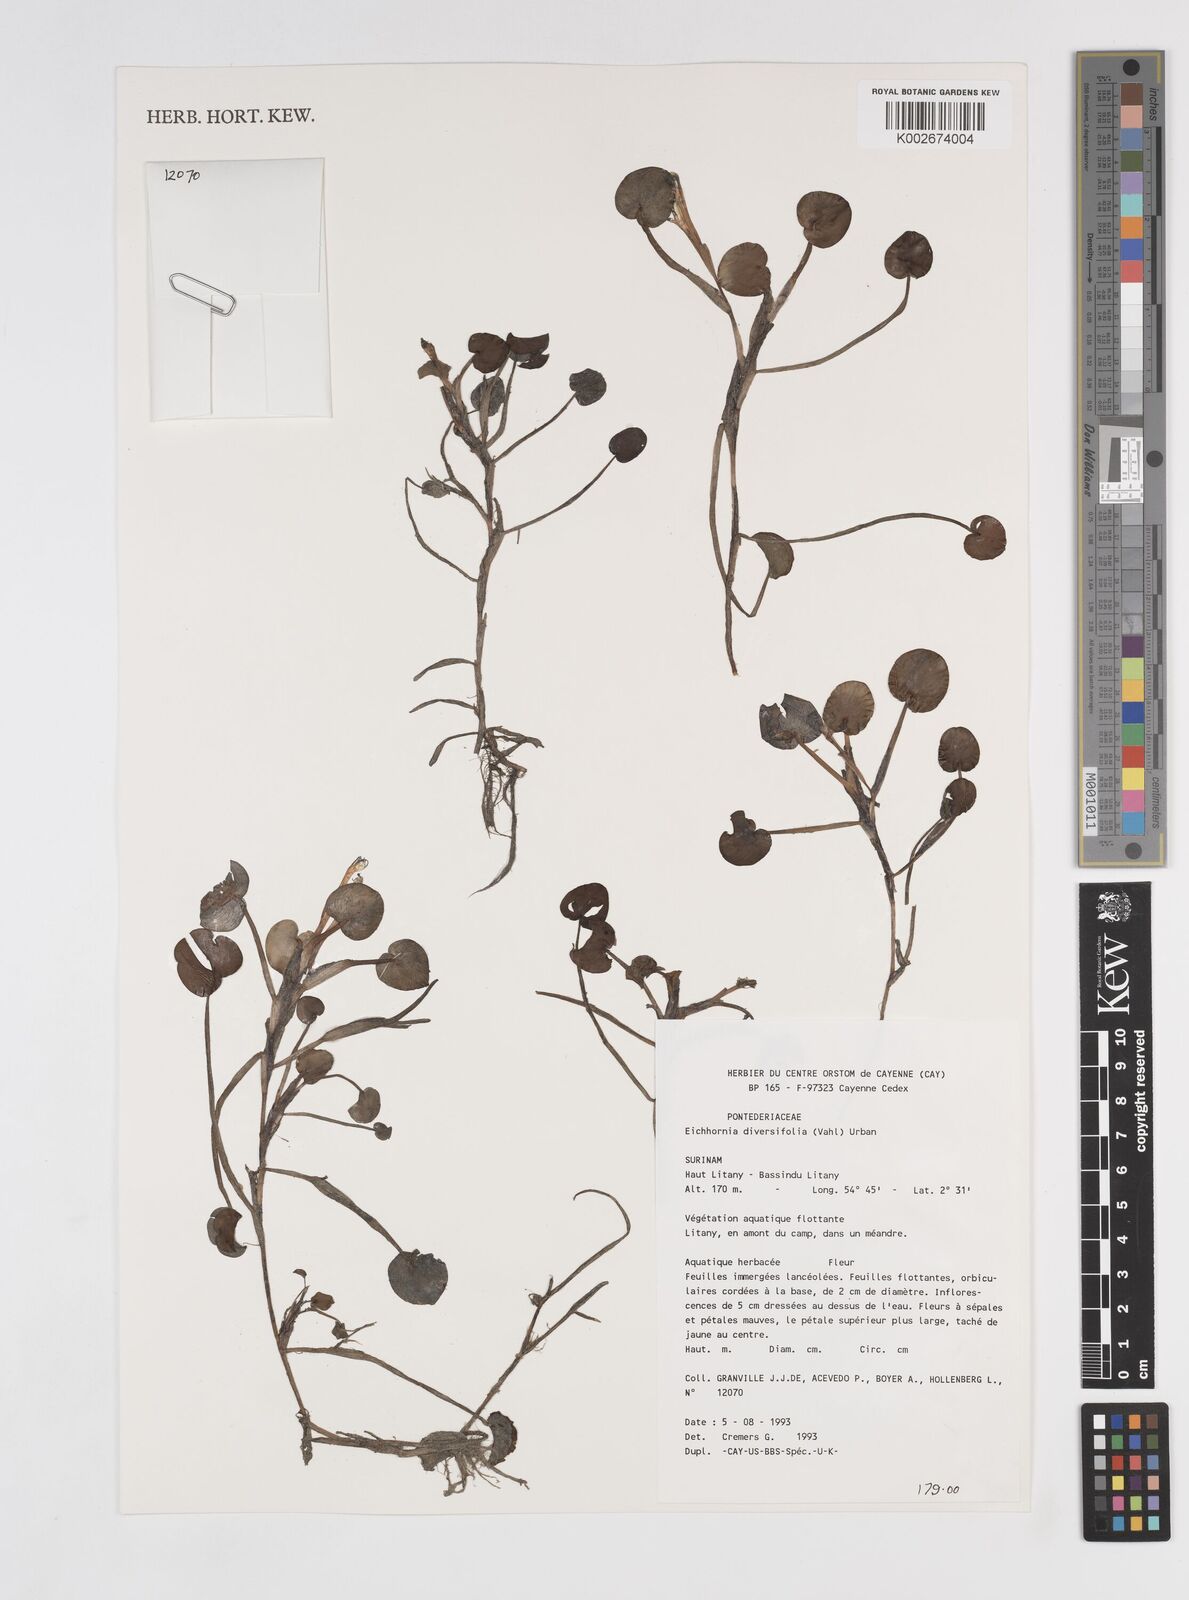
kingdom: Plantae
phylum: Tracheophyta
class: Liliopsida
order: Commelinales
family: Pontederiaceae
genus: Pontederia
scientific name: Pontederia diversifolia
